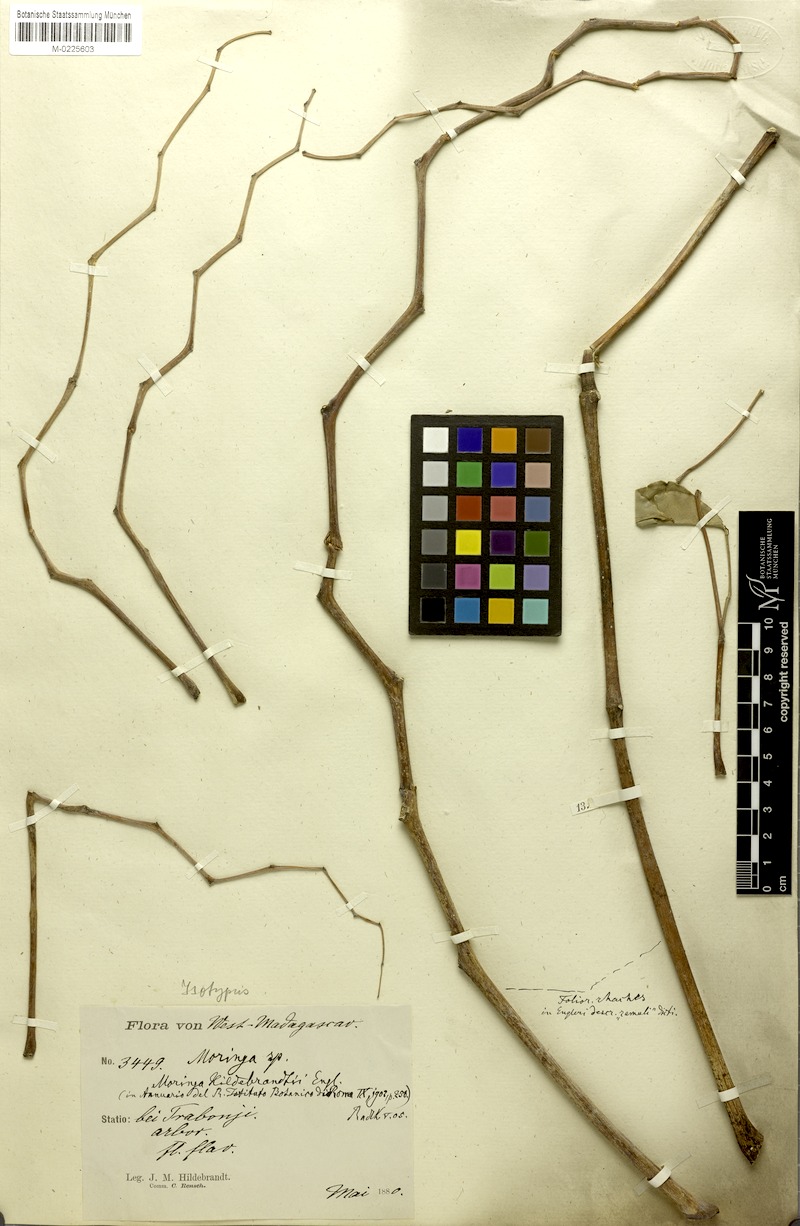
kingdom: Plantae
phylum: Tracheophyta
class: Magnoliopsida
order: Brassicales
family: Moringaceae
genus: Moringa
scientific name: Moringa hildebrandtii
